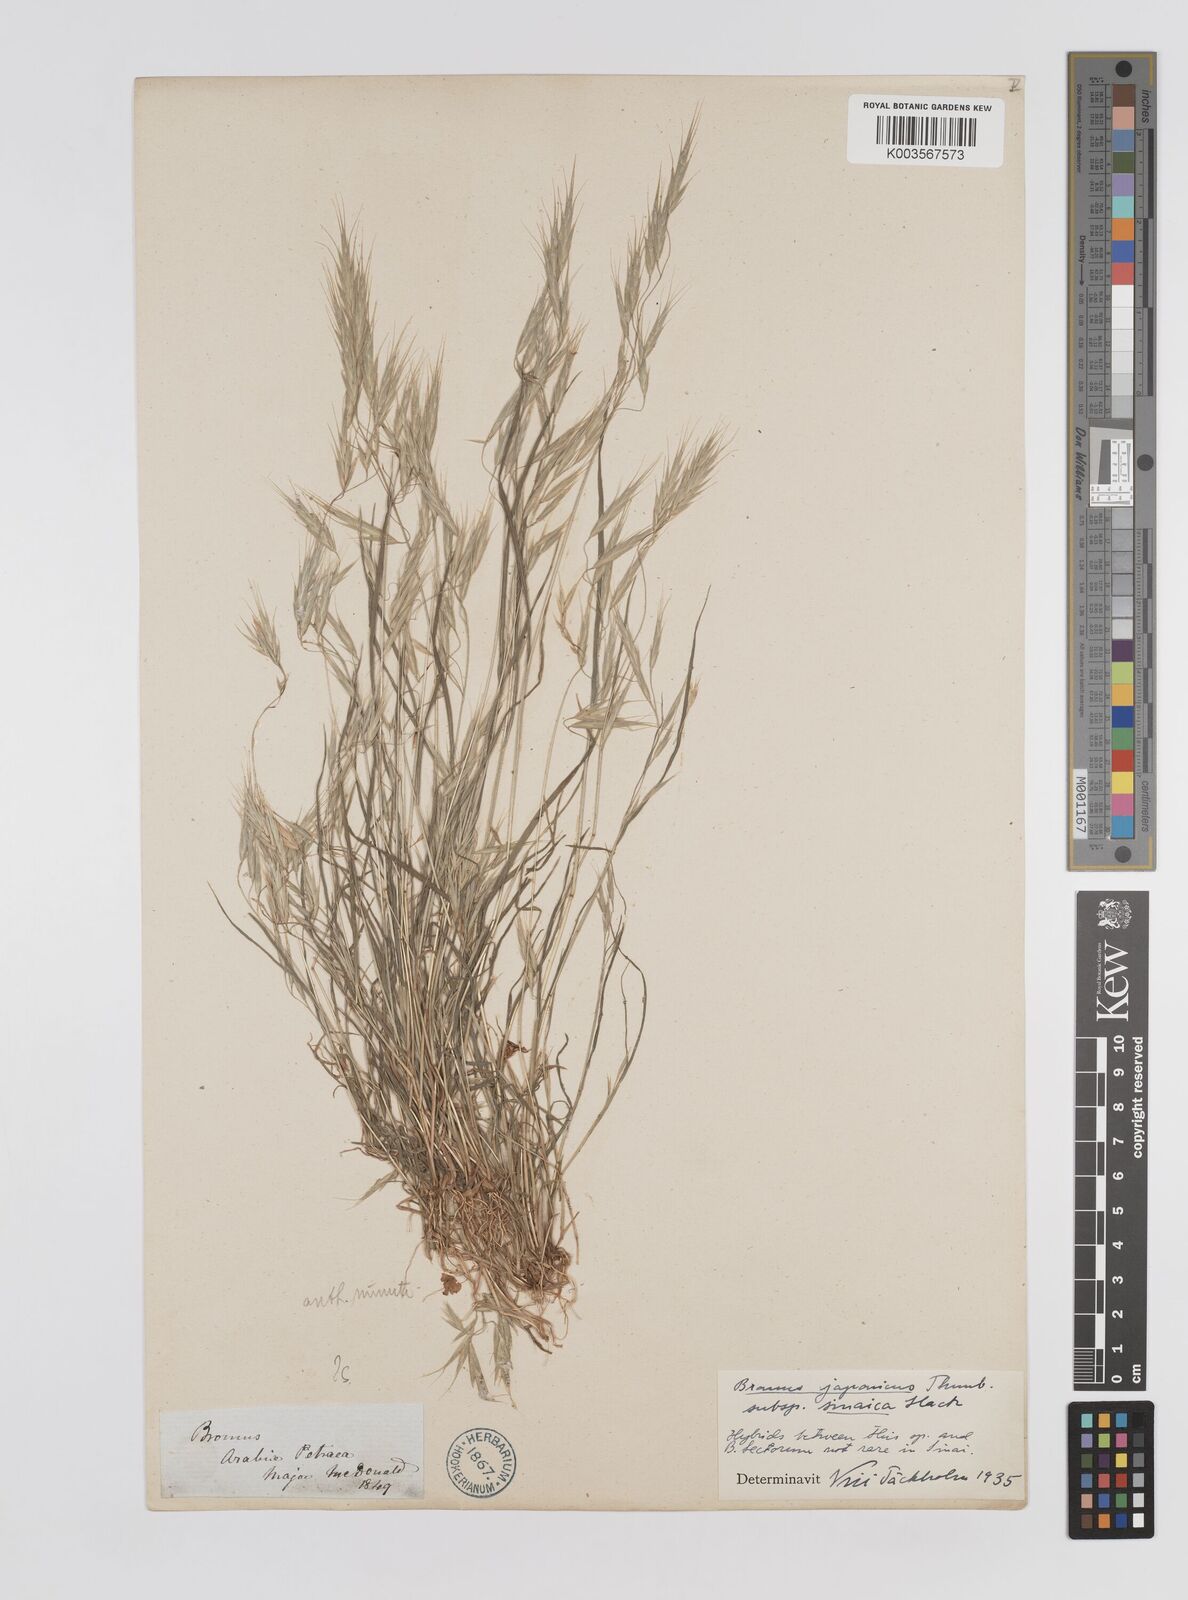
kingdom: Plantae
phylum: Tracheophyta
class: Liliopsida
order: Poales
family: Poaceae
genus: Bromus
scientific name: Bromus pectinatus
